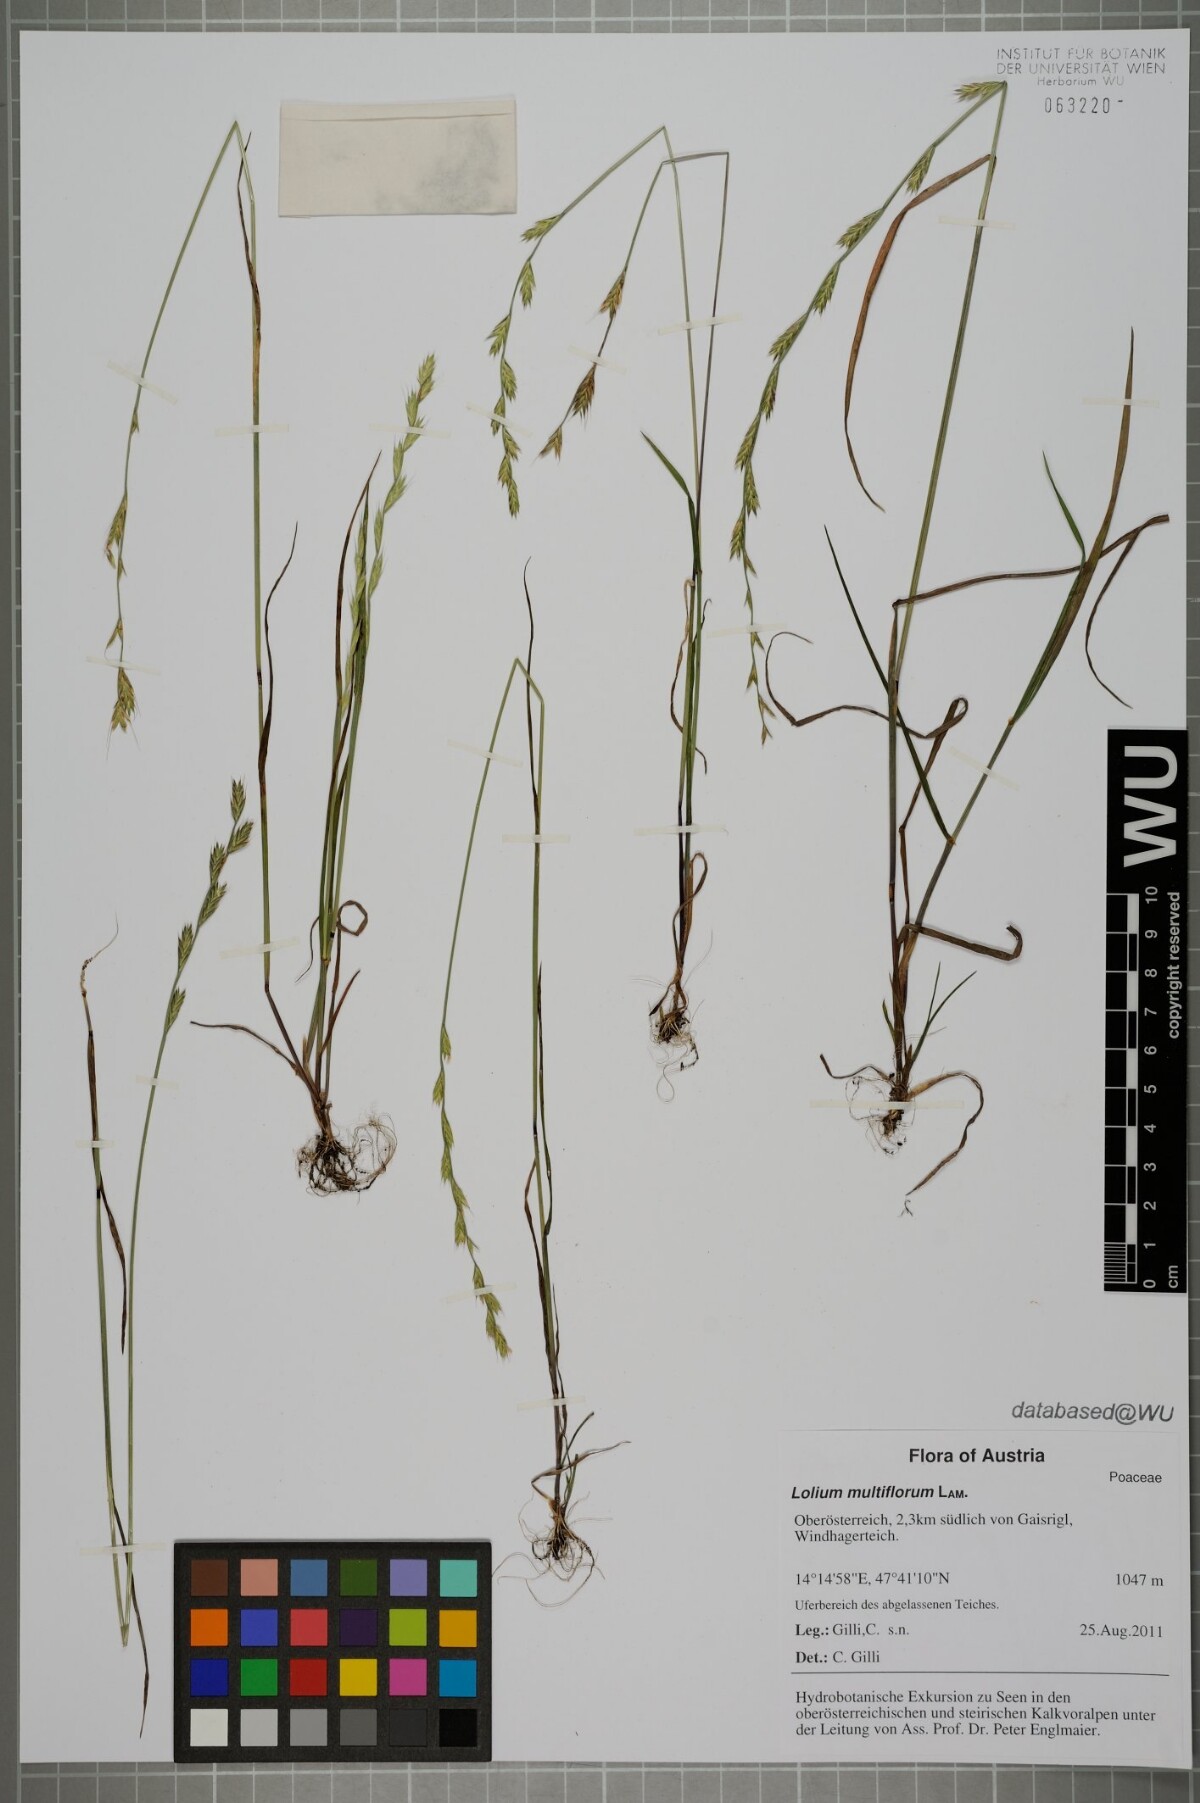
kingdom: Plantae
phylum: Tracheophyta
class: Liliopsida
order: Poales
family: Poaceae
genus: Lolium
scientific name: Lolium multiflorum
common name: Annual ryegrass
